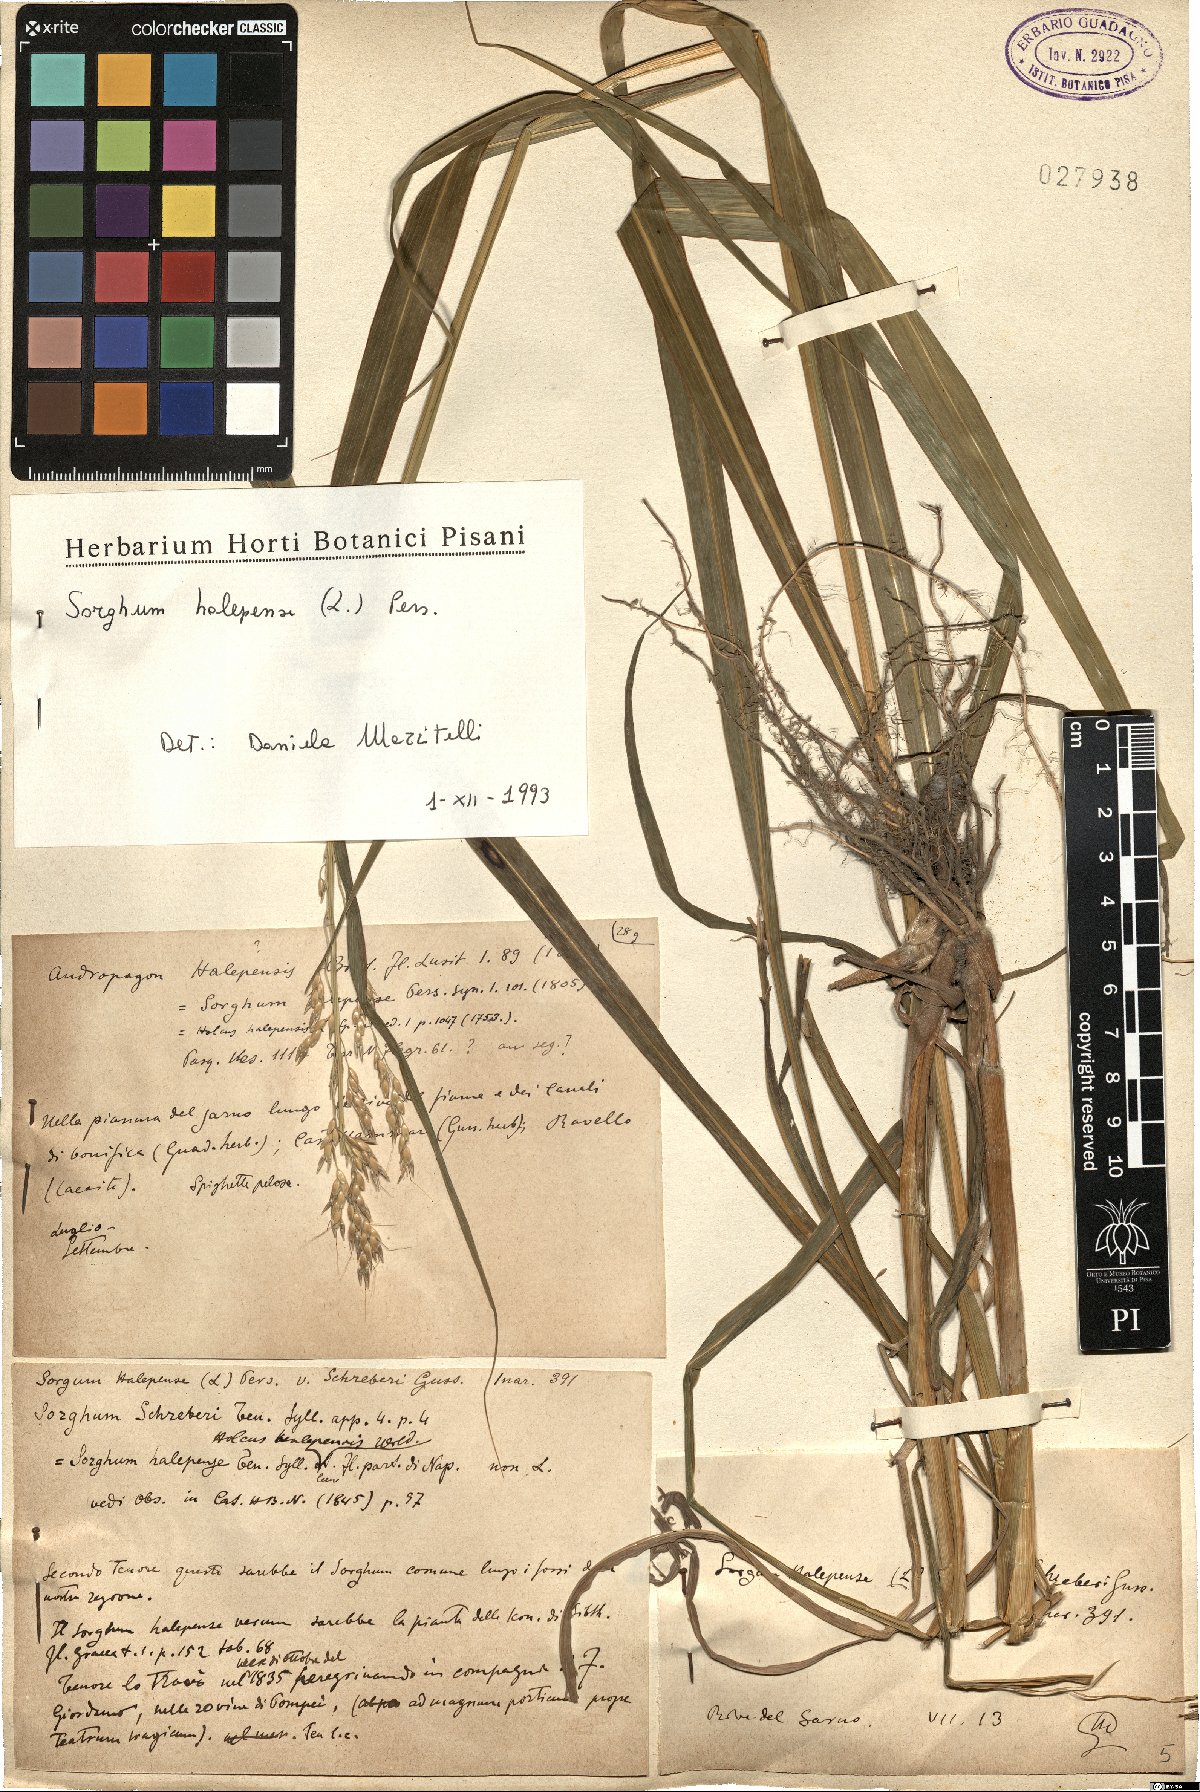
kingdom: Plantae
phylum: Tracheophyta
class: Liliopsida
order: Poales
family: Poaceae
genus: Sorghum
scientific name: Sorghum halepense
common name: Johnson-grass
